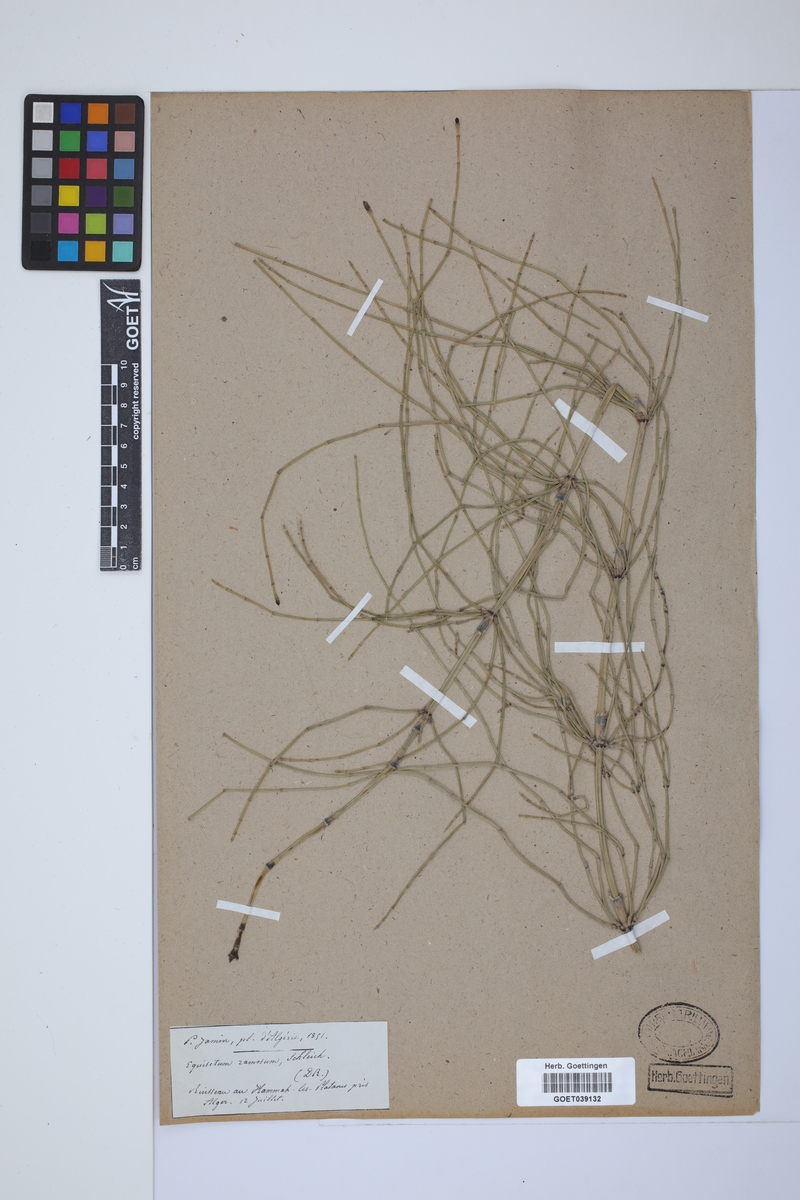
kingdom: Plantae
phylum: Tracheophyta
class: Polypodiopsida
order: Equisetales
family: Equisetaceae
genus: Equisetum
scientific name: Equisetum giganteum
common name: Giant horsetail
